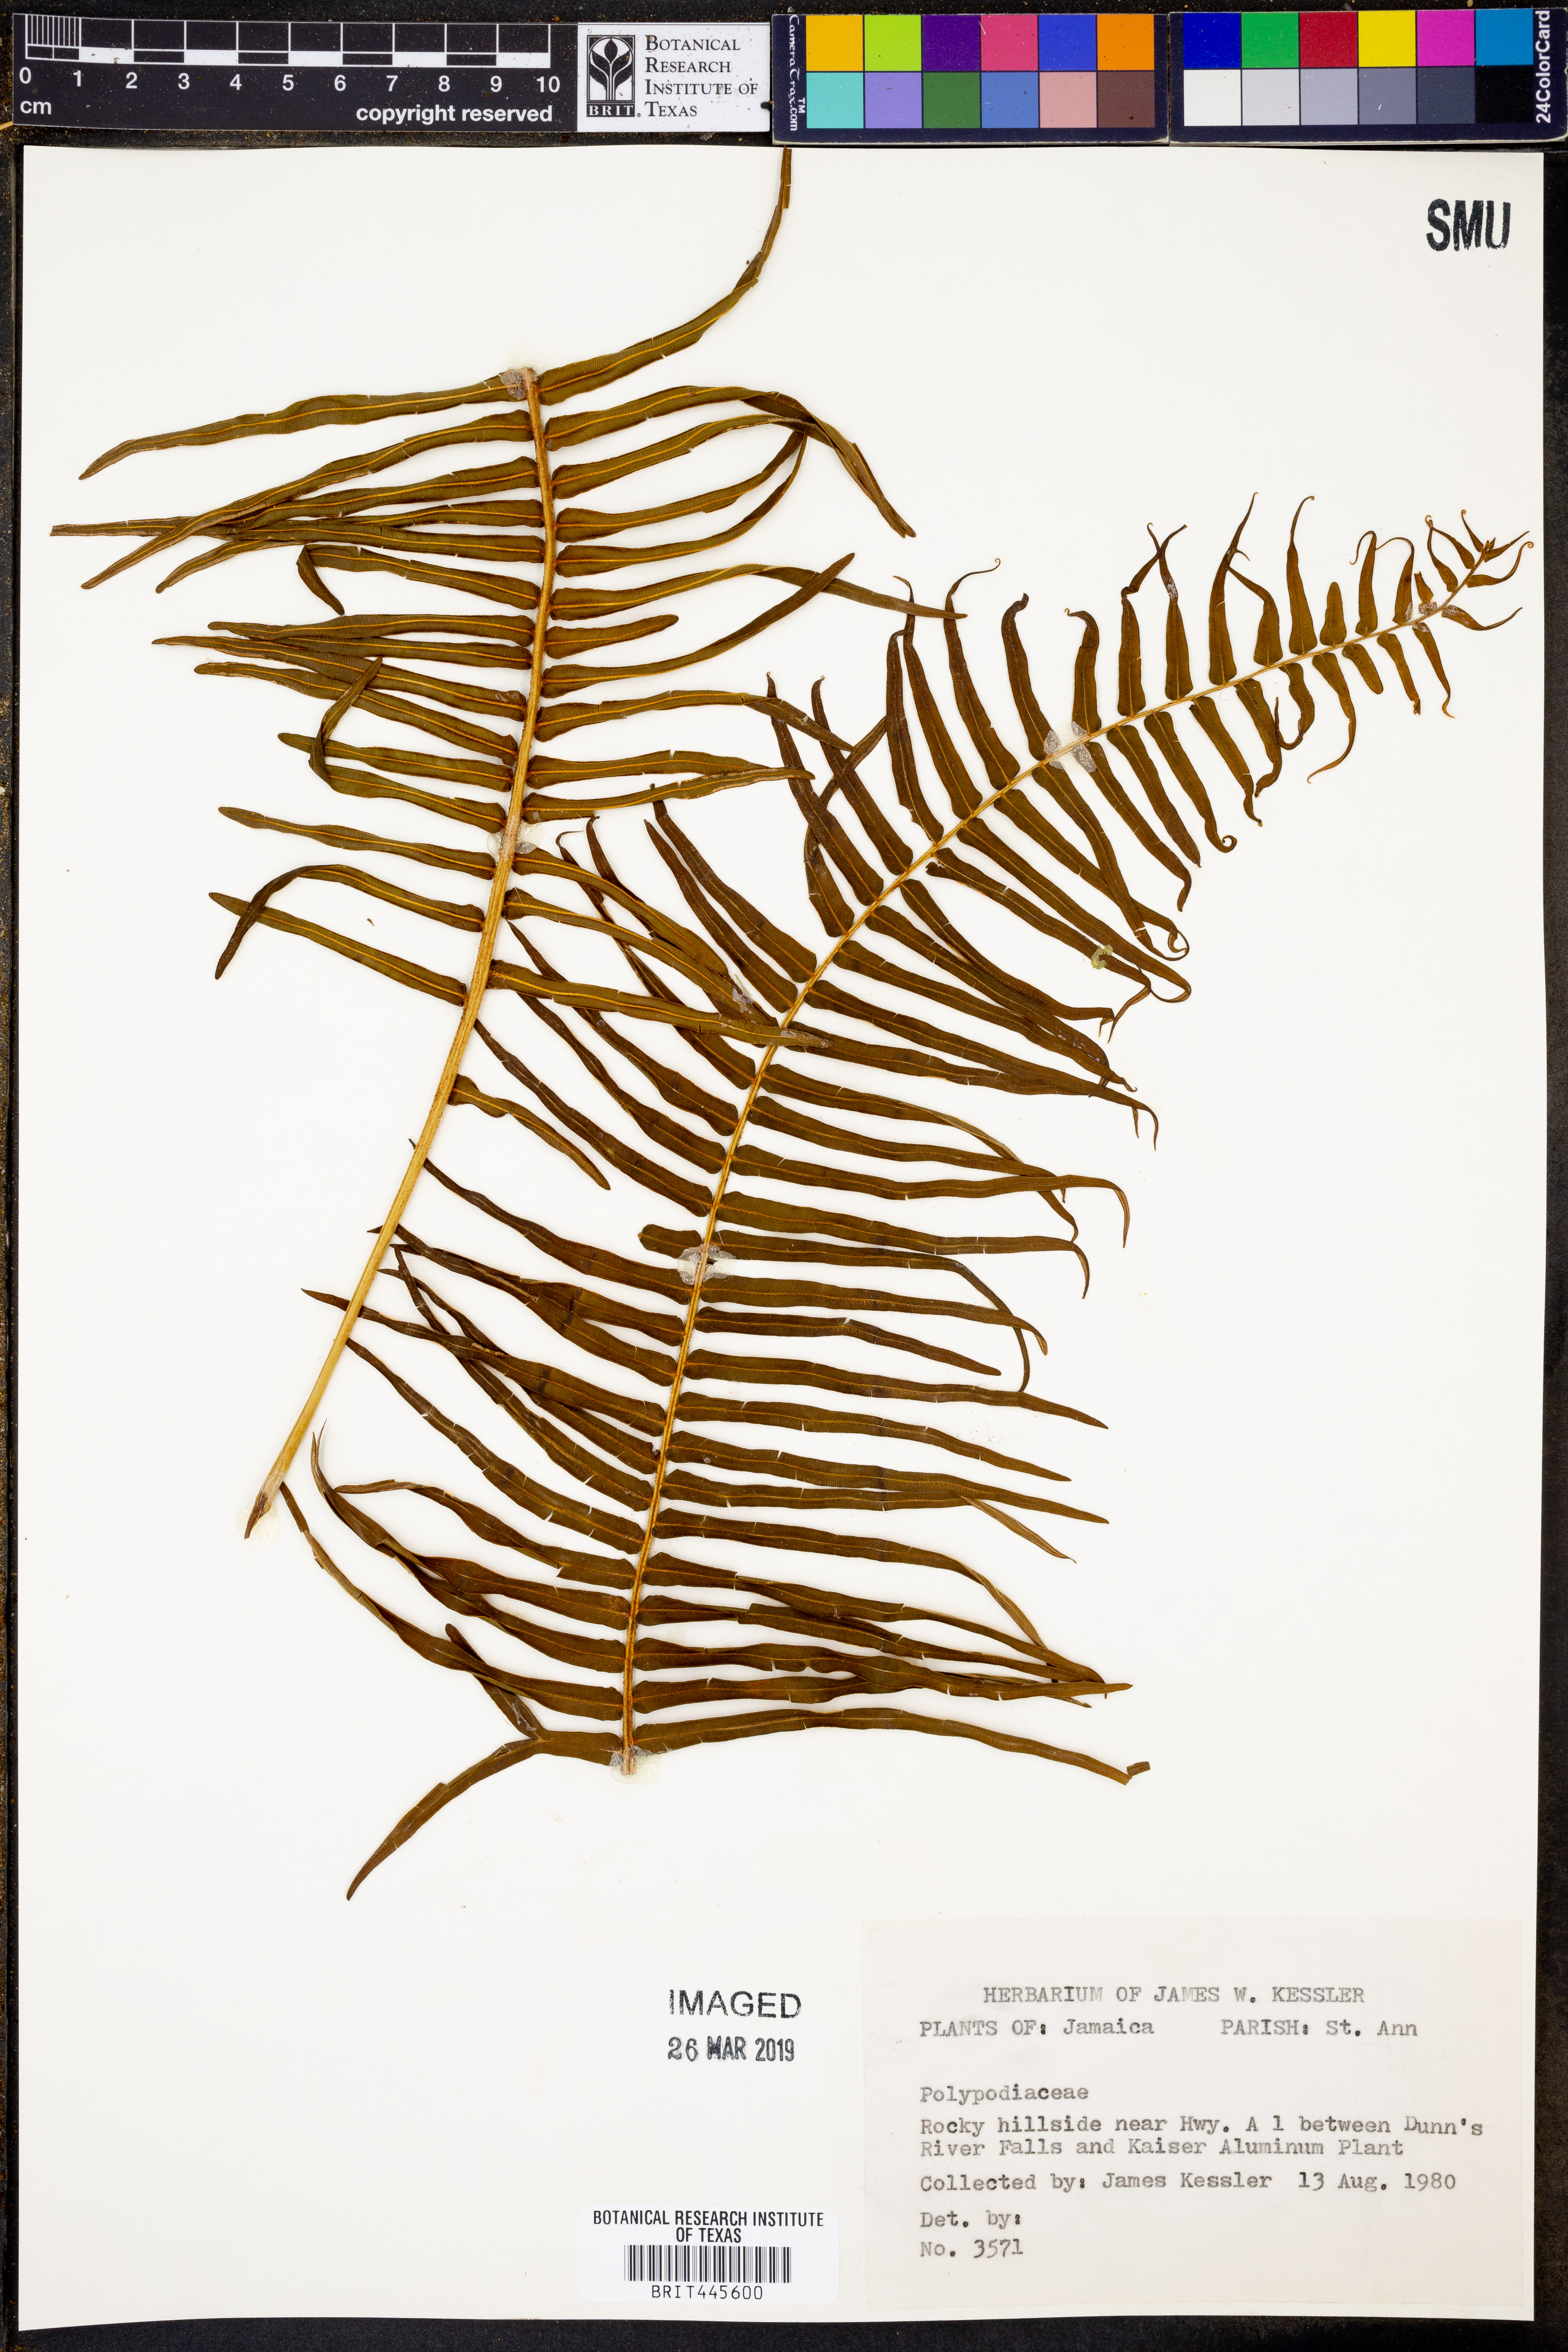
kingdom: Plantae
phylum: Tracheophyta
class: Polypodiopsida
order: Polypodiales
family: Polypodiaceae
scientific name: Polypodiaceae
